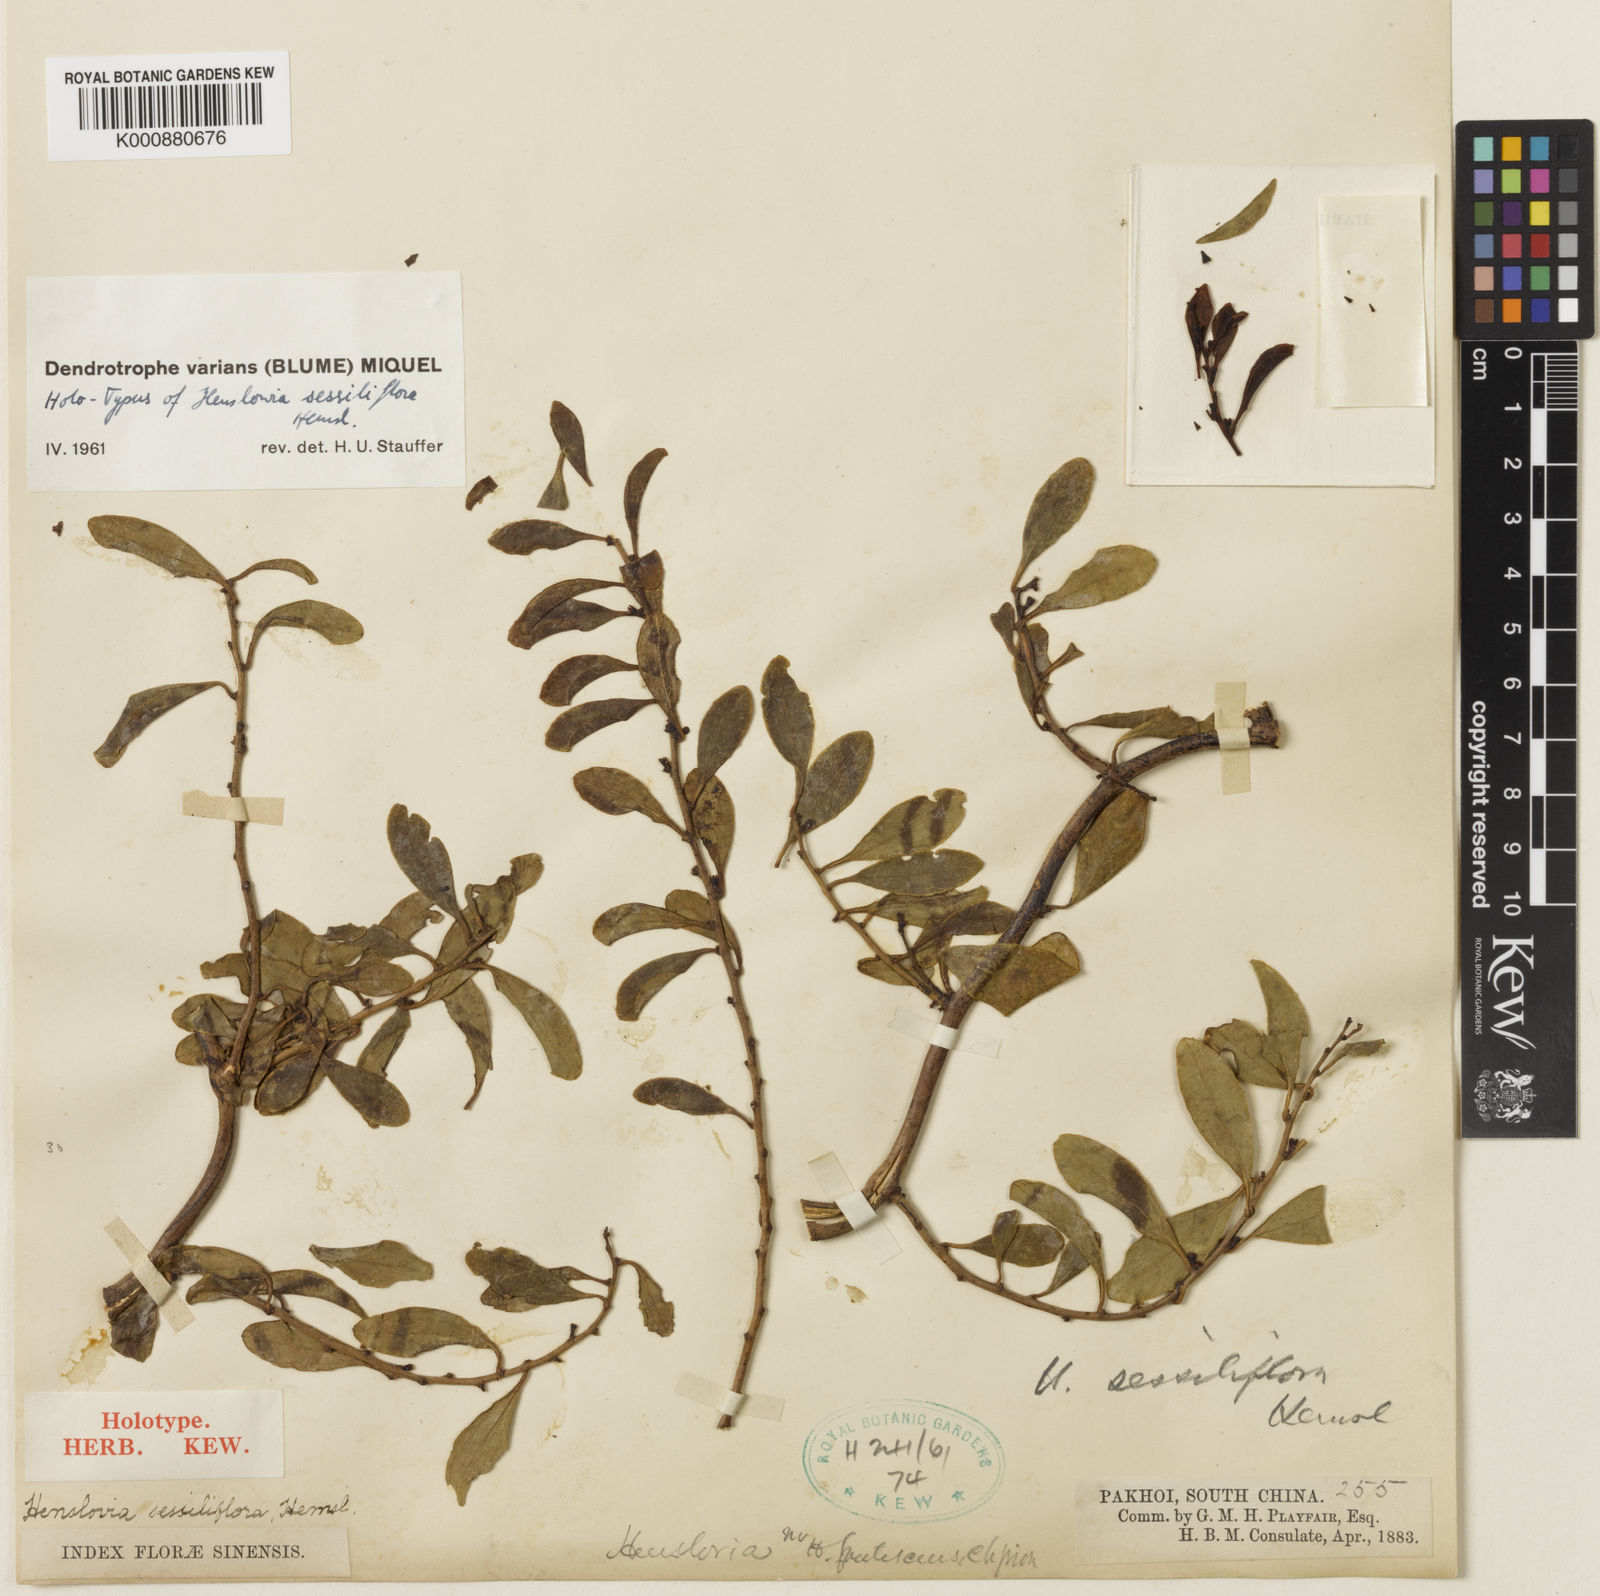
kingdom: Plantae
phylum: Tracheophyta
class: Magnoliopsida
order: Santalales
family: Amphorogynaceae
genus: Dendrotrophe
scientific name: Dendrotrophe varians
